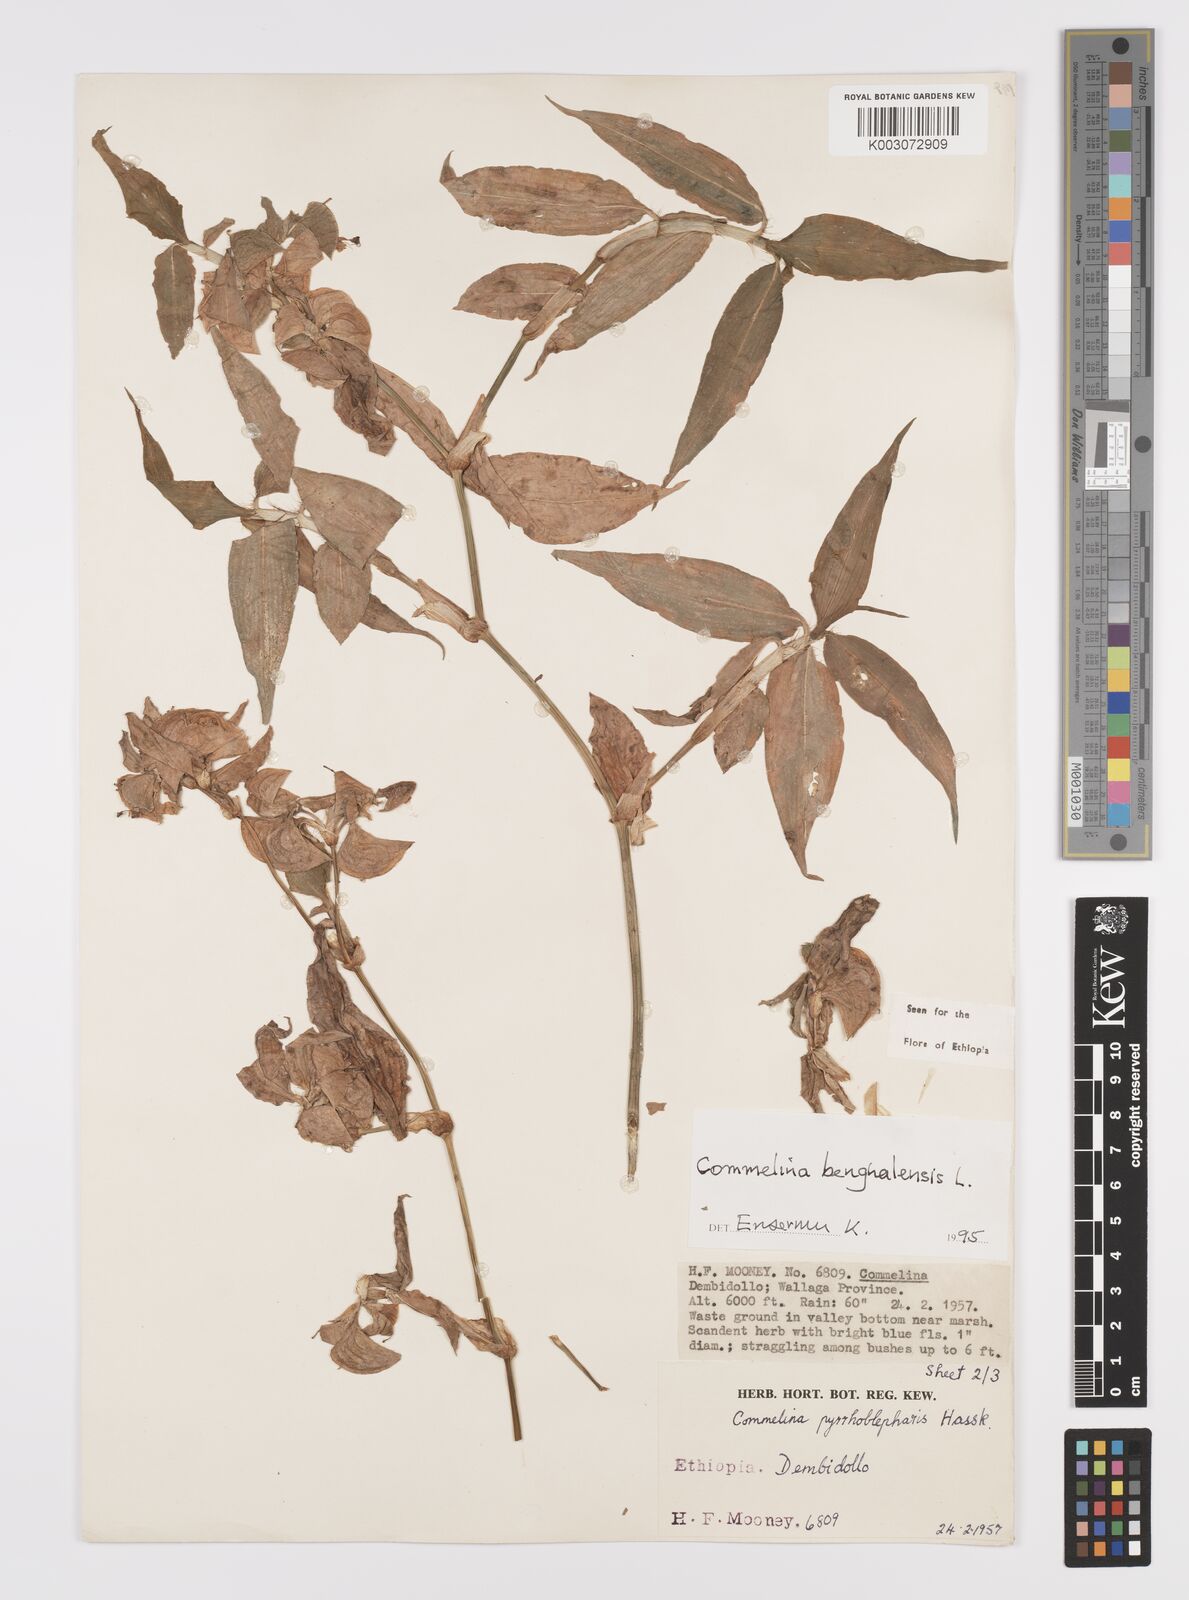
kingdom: Plantae
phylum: Tracheophyta
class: Liliopsida
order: Commelinales
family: Commelinaceae
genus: Commelina
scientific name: Commelina benghalensis
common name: Jio
